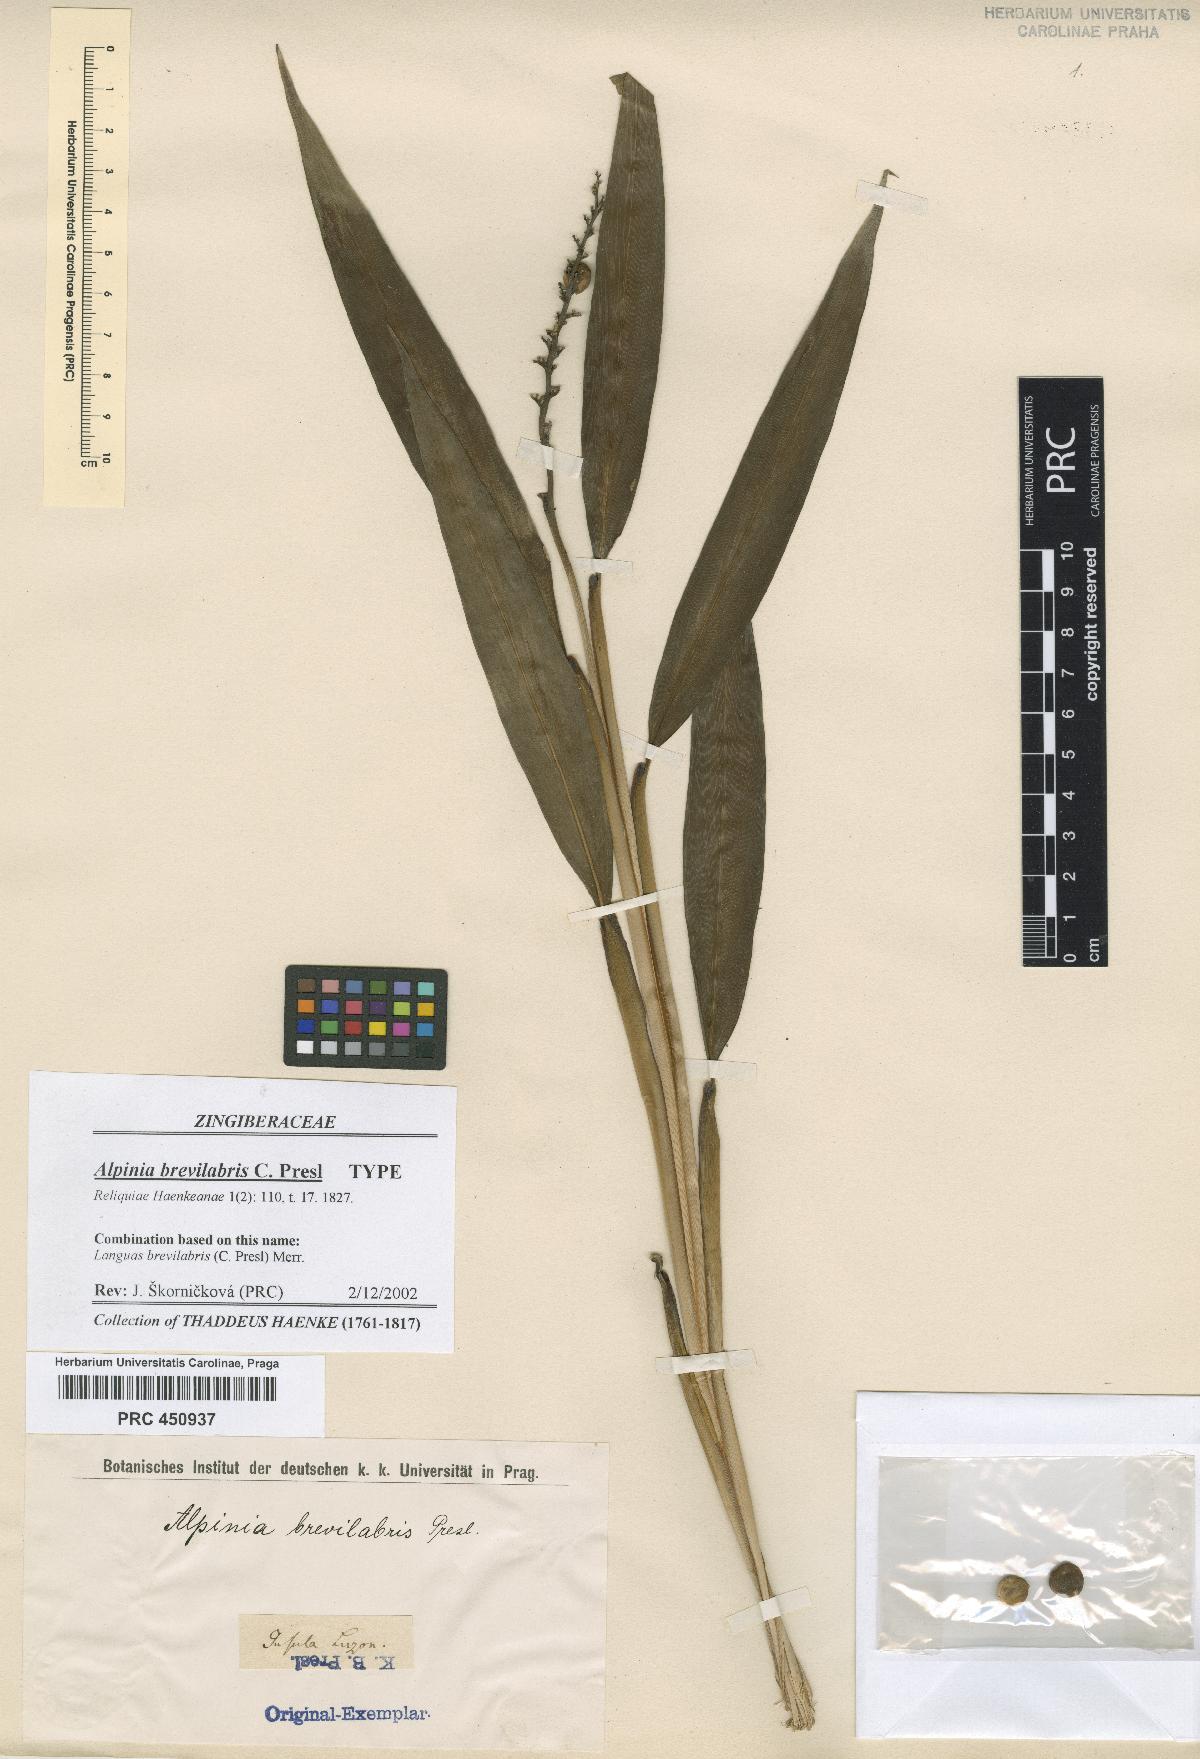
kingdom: Plantae
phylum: Tracheophyta
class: Liliopsida
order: Zingiberales
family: Zingiberaceae
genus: Alpinia
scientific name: Alpinia brevilabris
